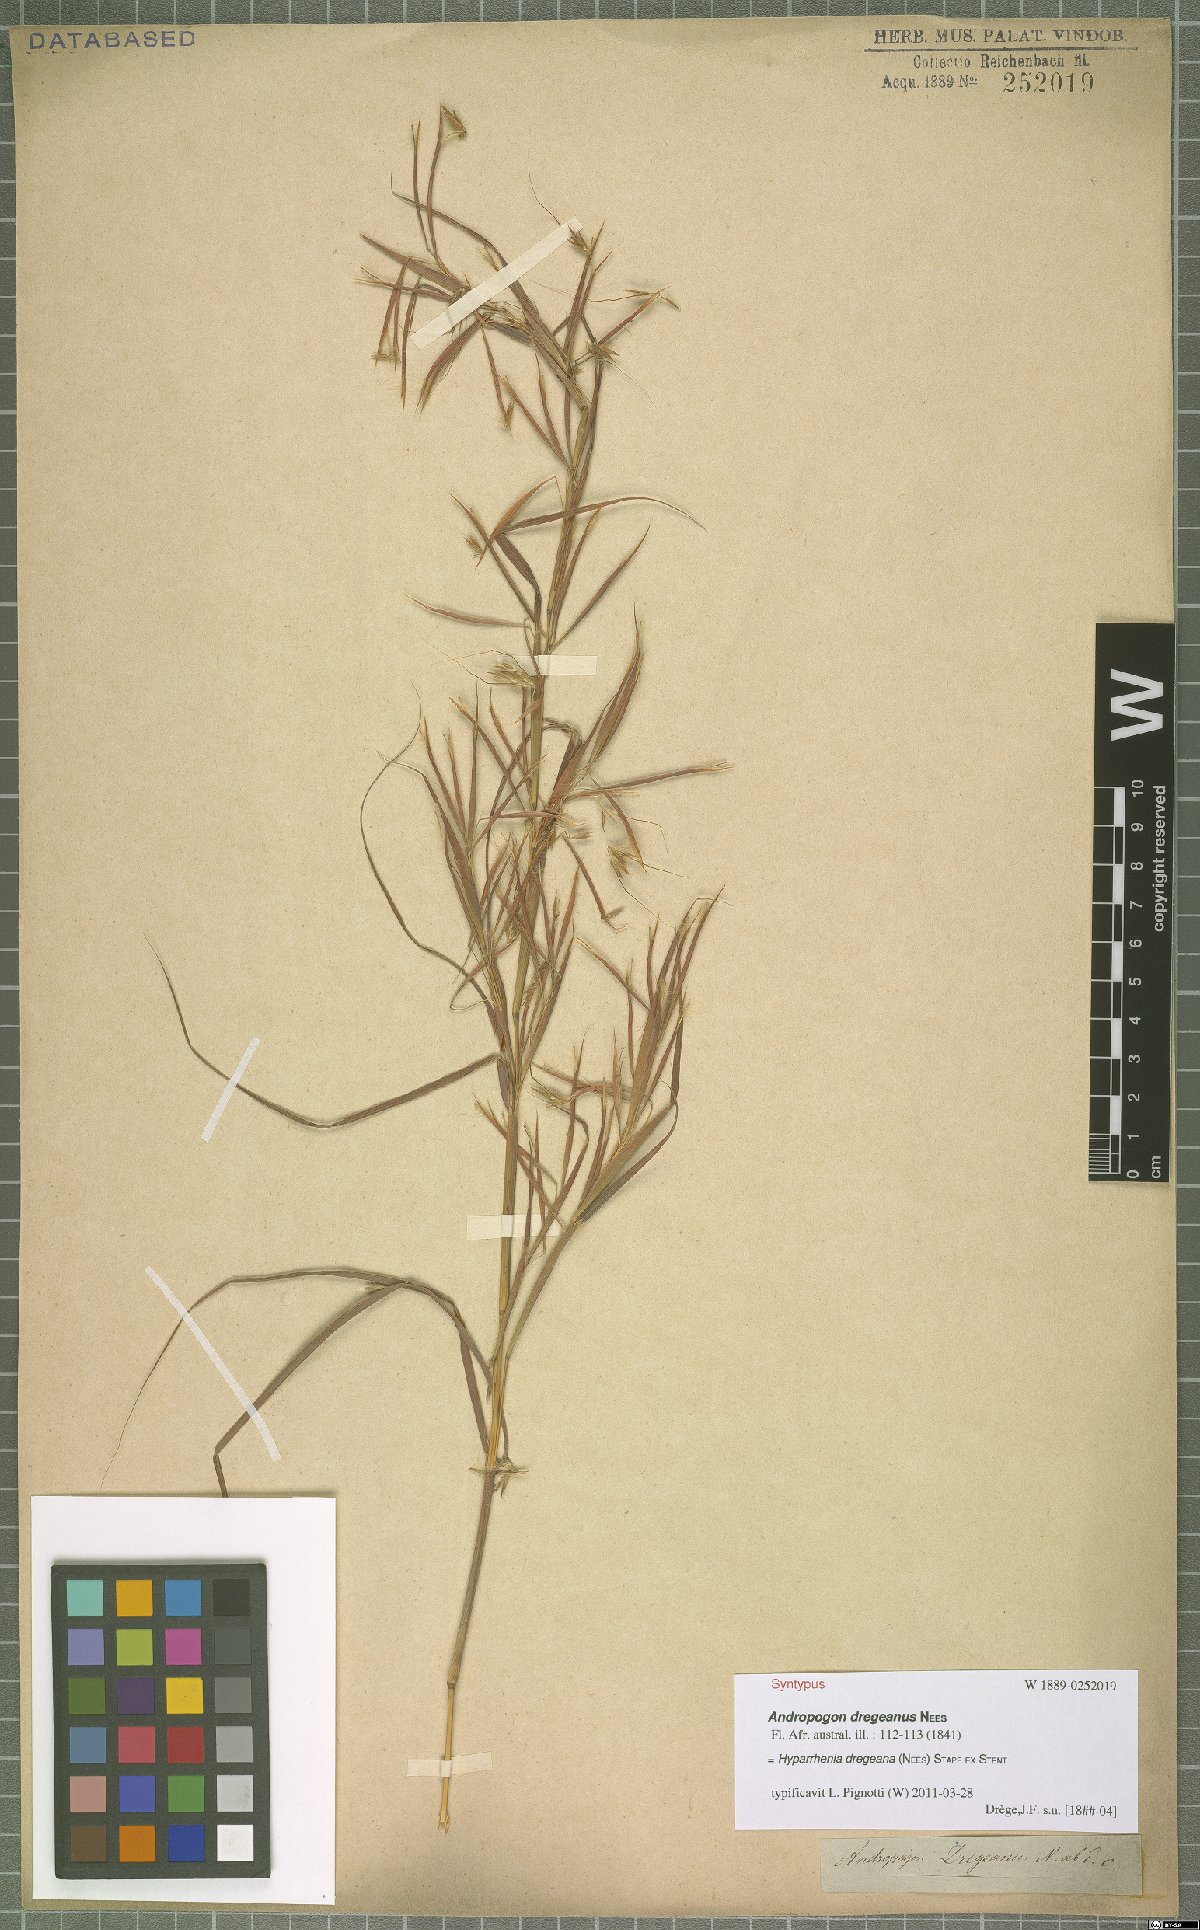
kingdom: Plantae
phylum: Tracheophyta
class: Liliopsida
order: Poales
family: Poaceae
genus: Hyparrhenia
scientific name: Hyparrhenia dregeana
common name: Silky thatching grass
